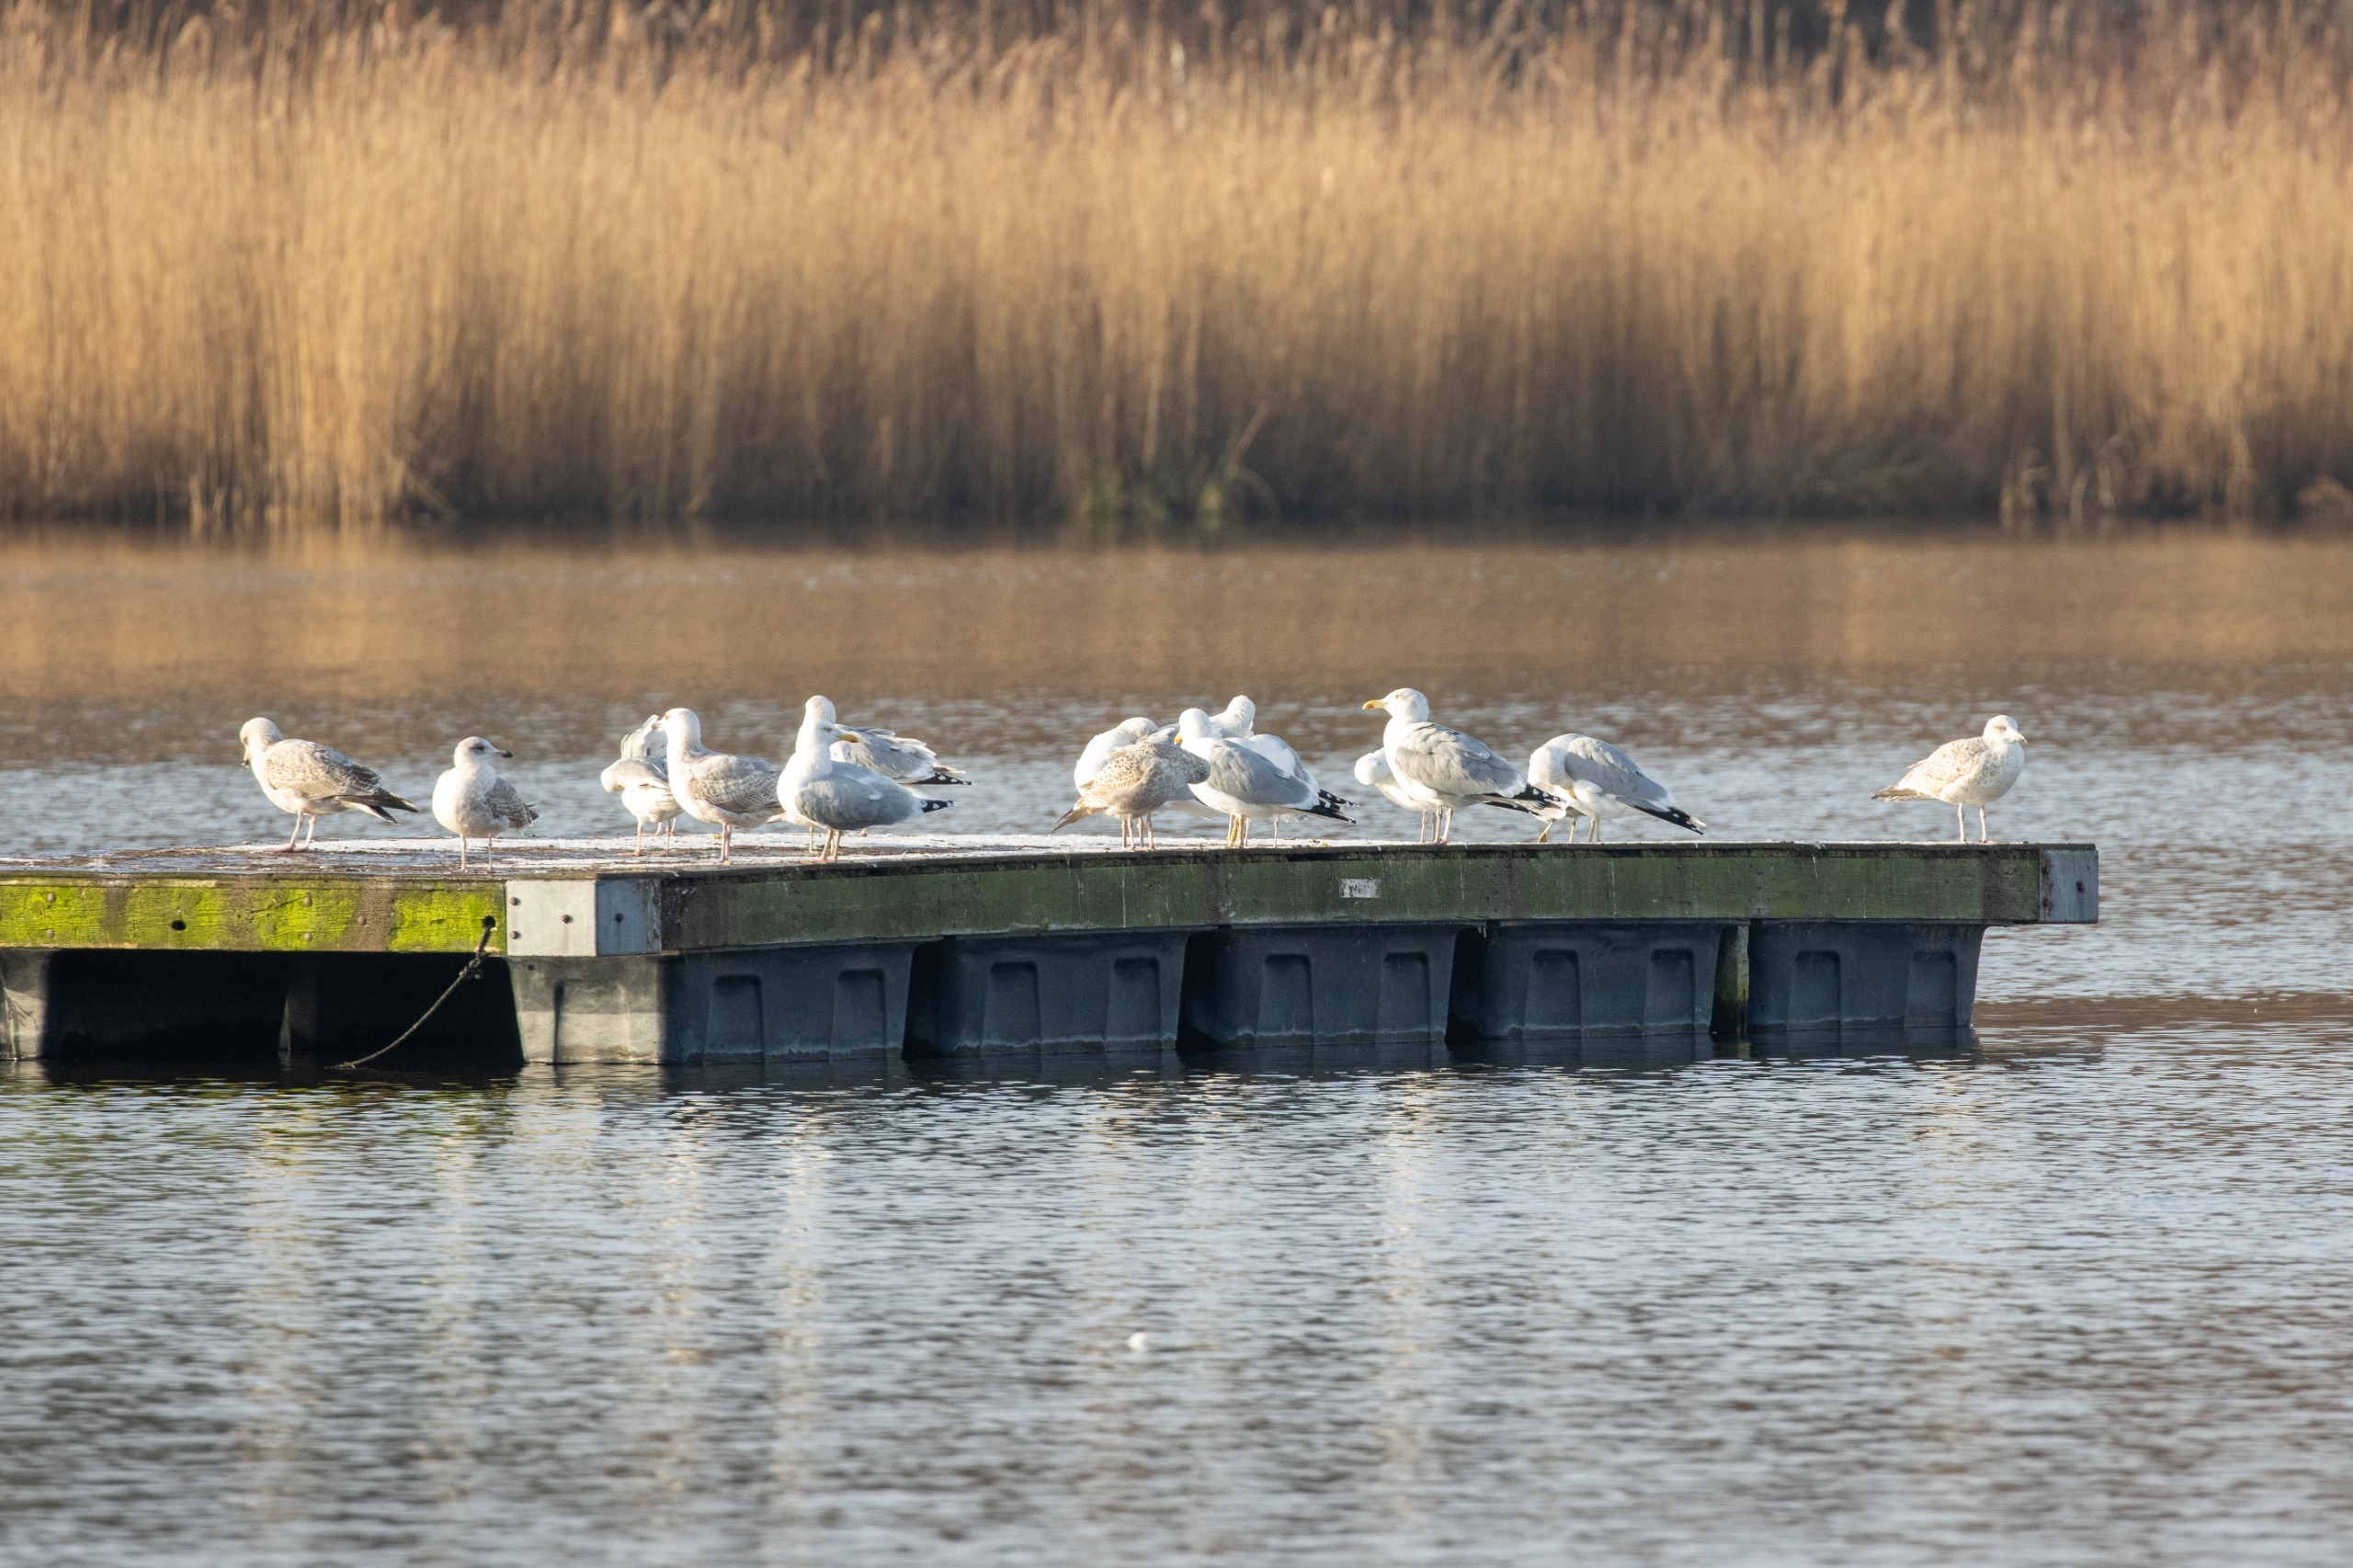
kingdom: Animalia
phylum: Chordata
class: Aves
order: Charadriiformes
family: Laridae
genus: Larus
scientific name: Larus argentatus
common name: Sølvmåge
